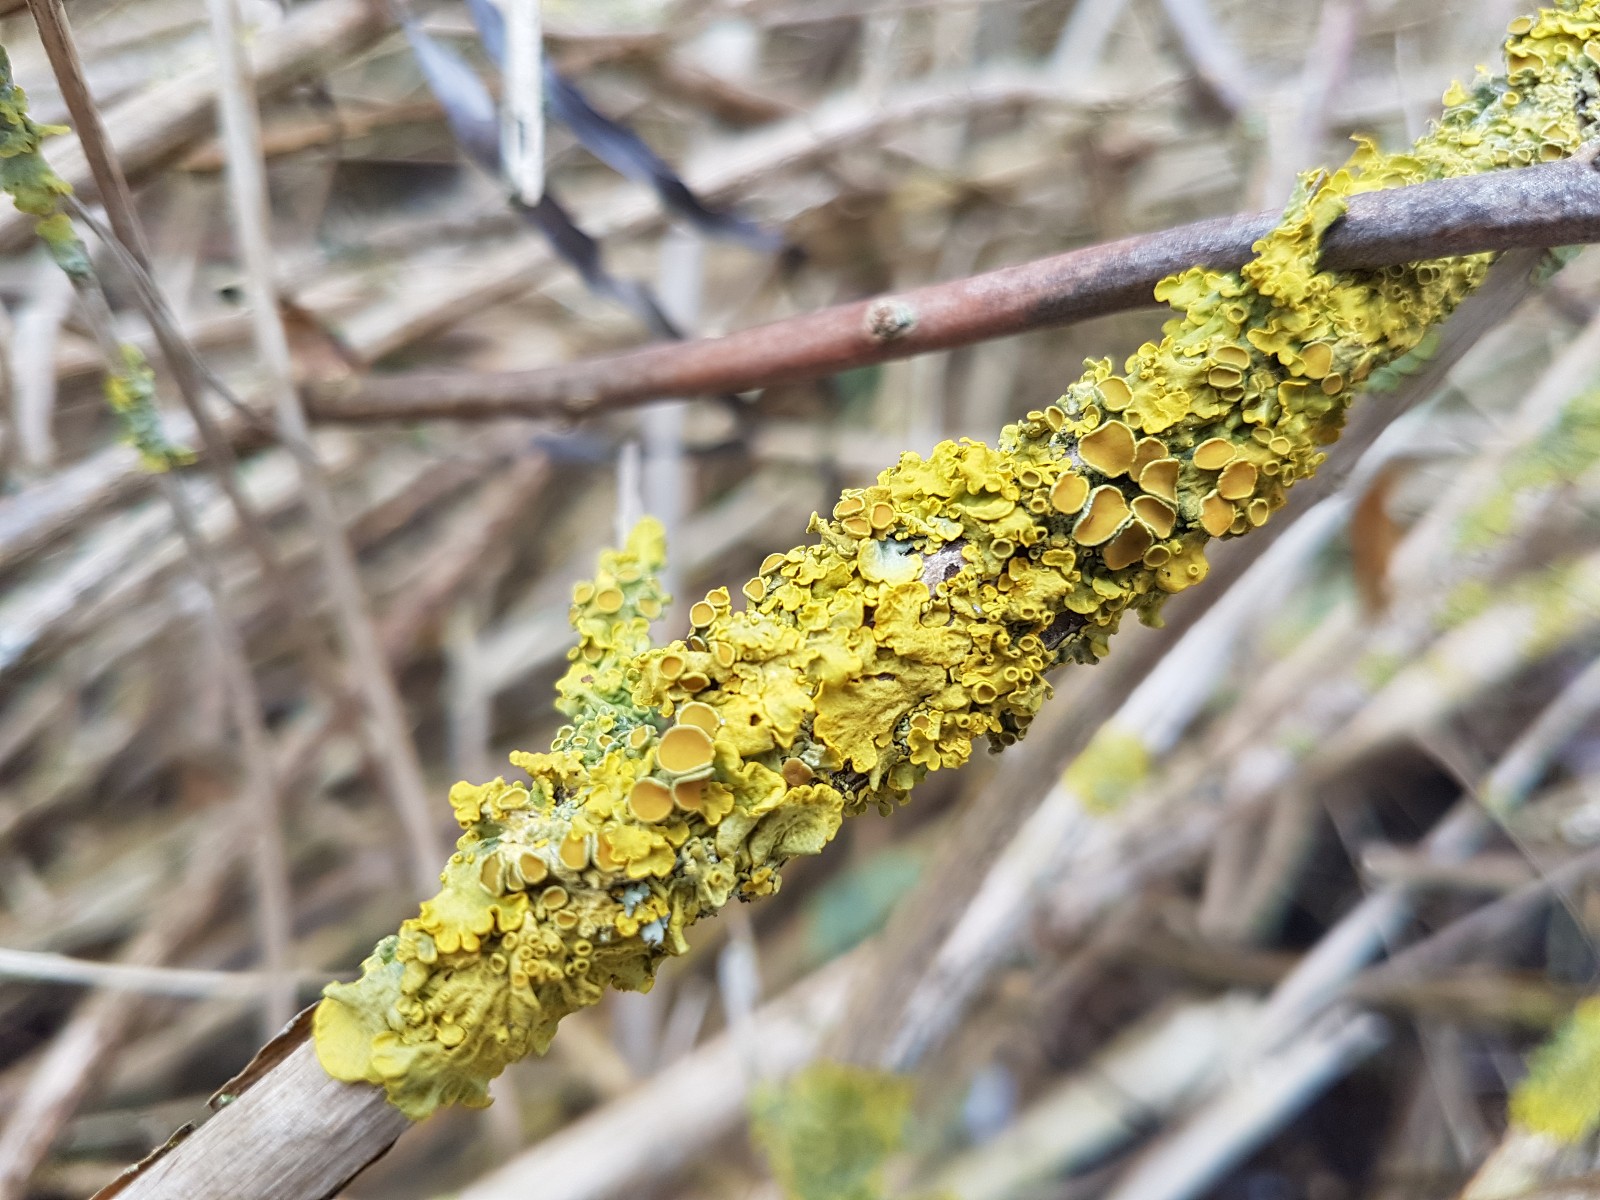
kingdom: Fungi
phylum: Ascomycota
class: Lecanoromycetes
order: Teloschistales
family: Teloschistaceae
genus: Xanthoria
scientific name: Xanthoria parietina
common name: almindelig væggelav
